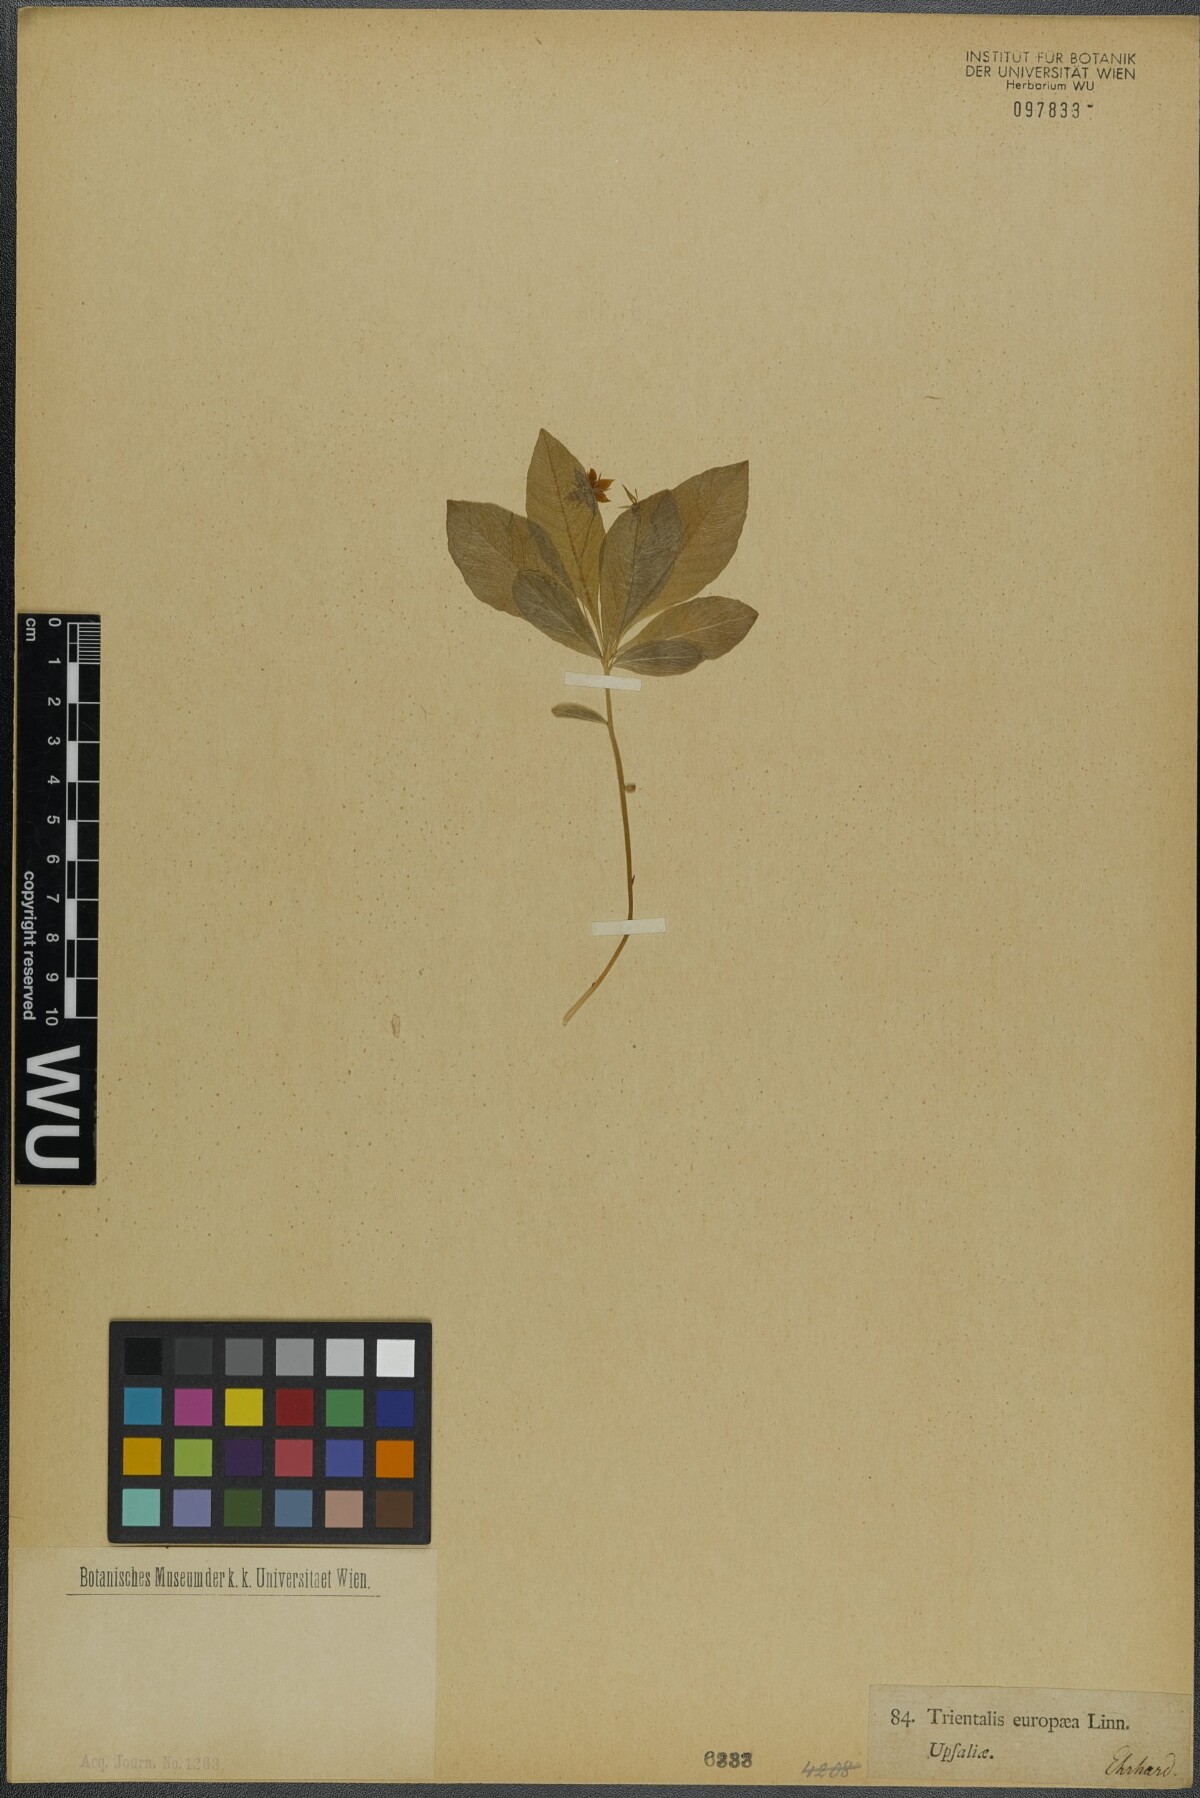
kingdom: Plantae
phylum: Tracheophyta
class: Magnoliopsida
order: Ericales
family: Primulaceae
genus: Lysimachia
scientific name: Lysimachia europaea
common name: Arctic starflower
